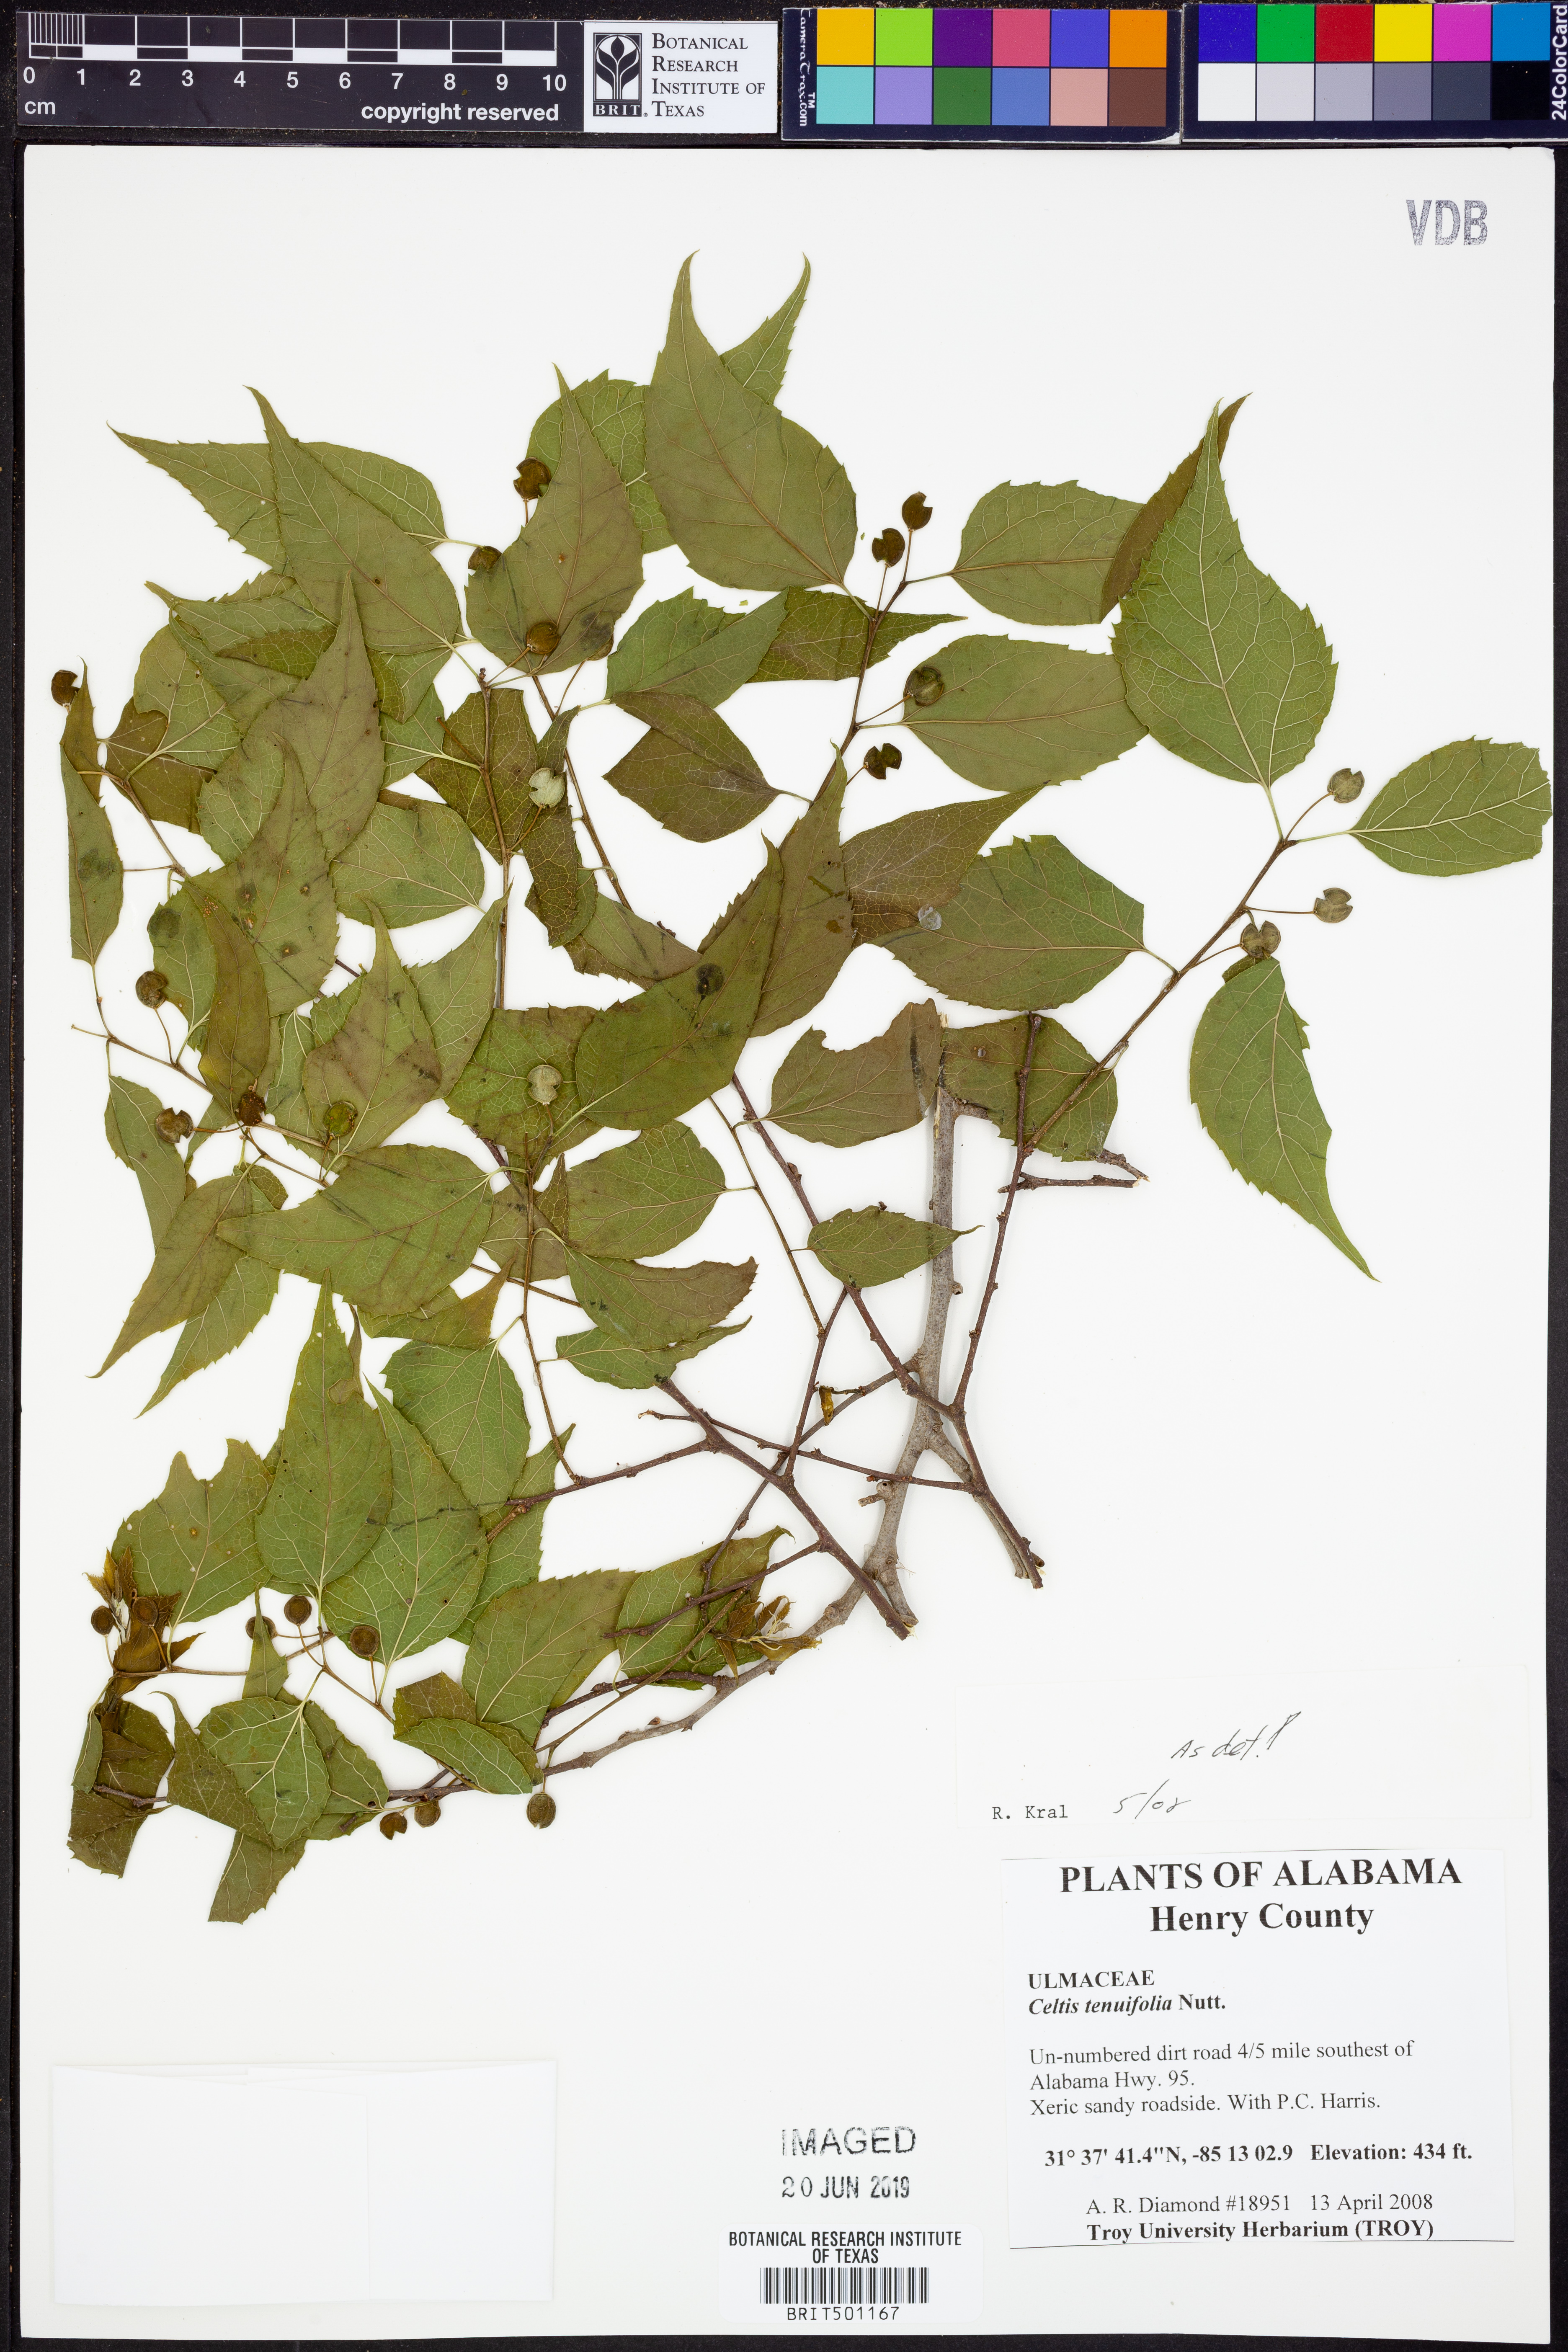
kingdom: Plantae
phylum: Tracheophyta
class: Magnoliopsida
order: Rosales
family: Cannabaceae
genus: Celtis
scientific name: Celtis tenuifolia
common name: Georgia hackberry
